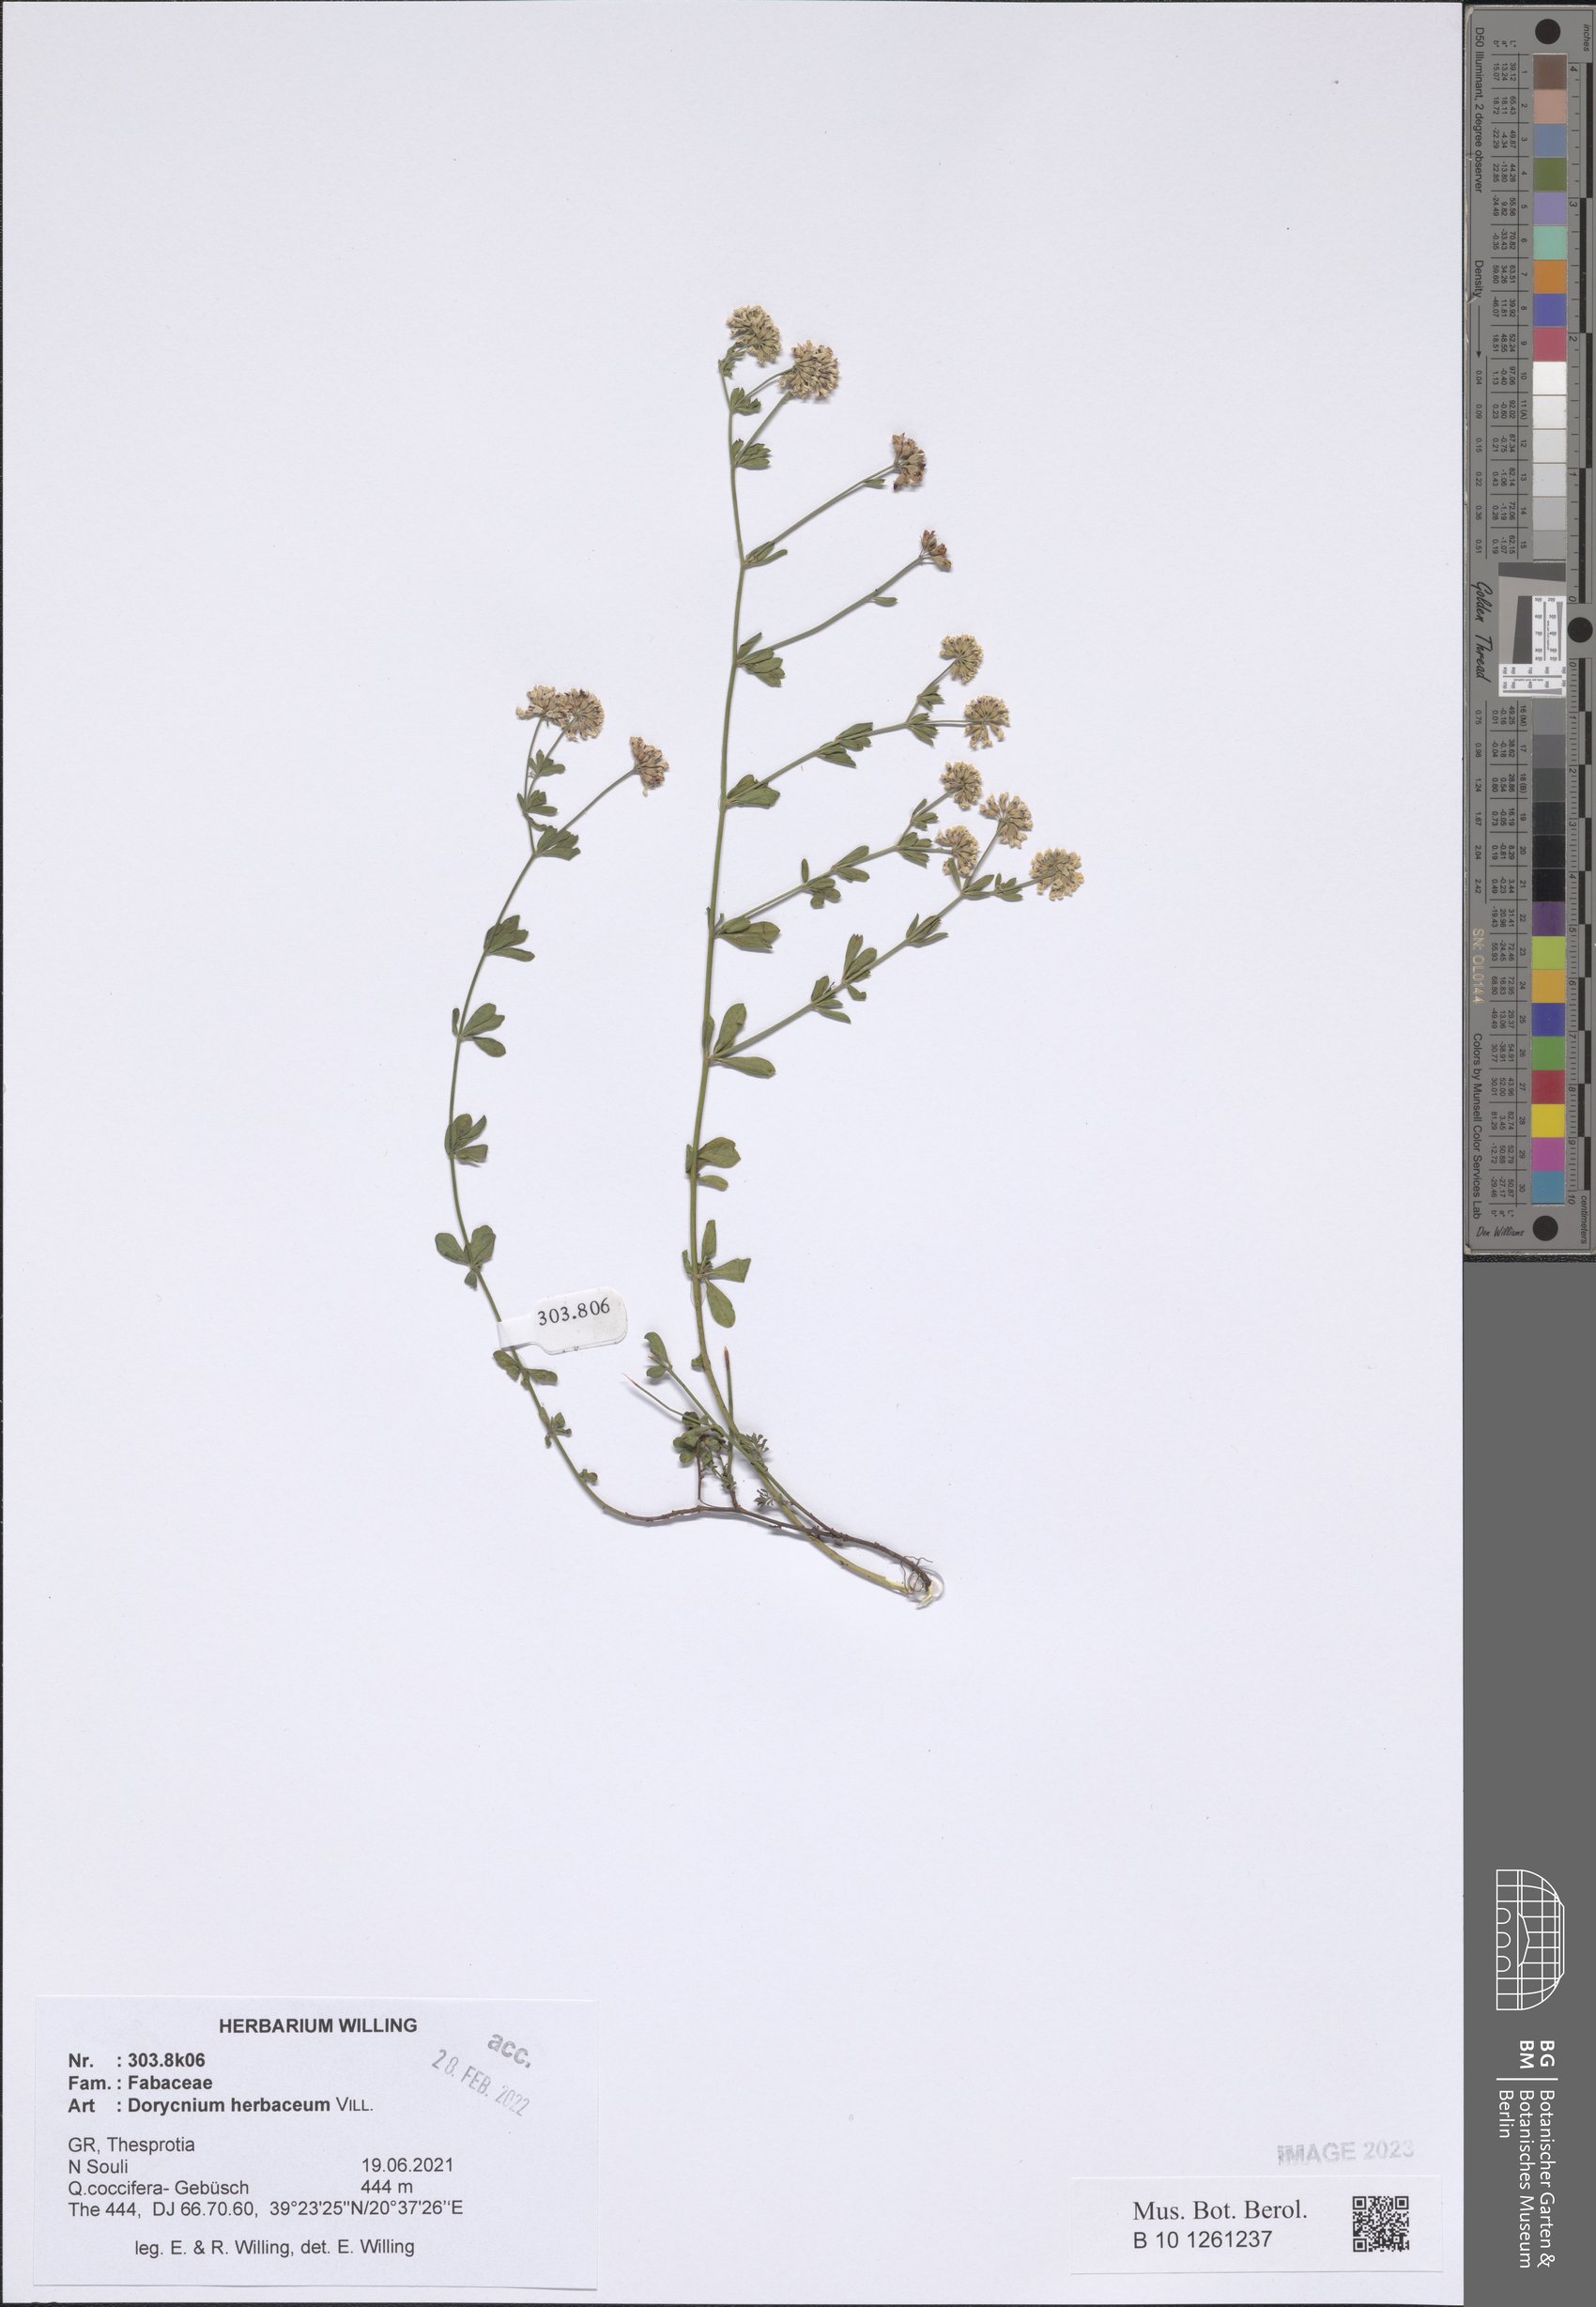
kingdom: Plantae
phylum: Tracheophyta
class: Magnoliopsida
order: Fabales
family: Fabaceae
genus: Lotus
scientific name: Lotus herbaceus
